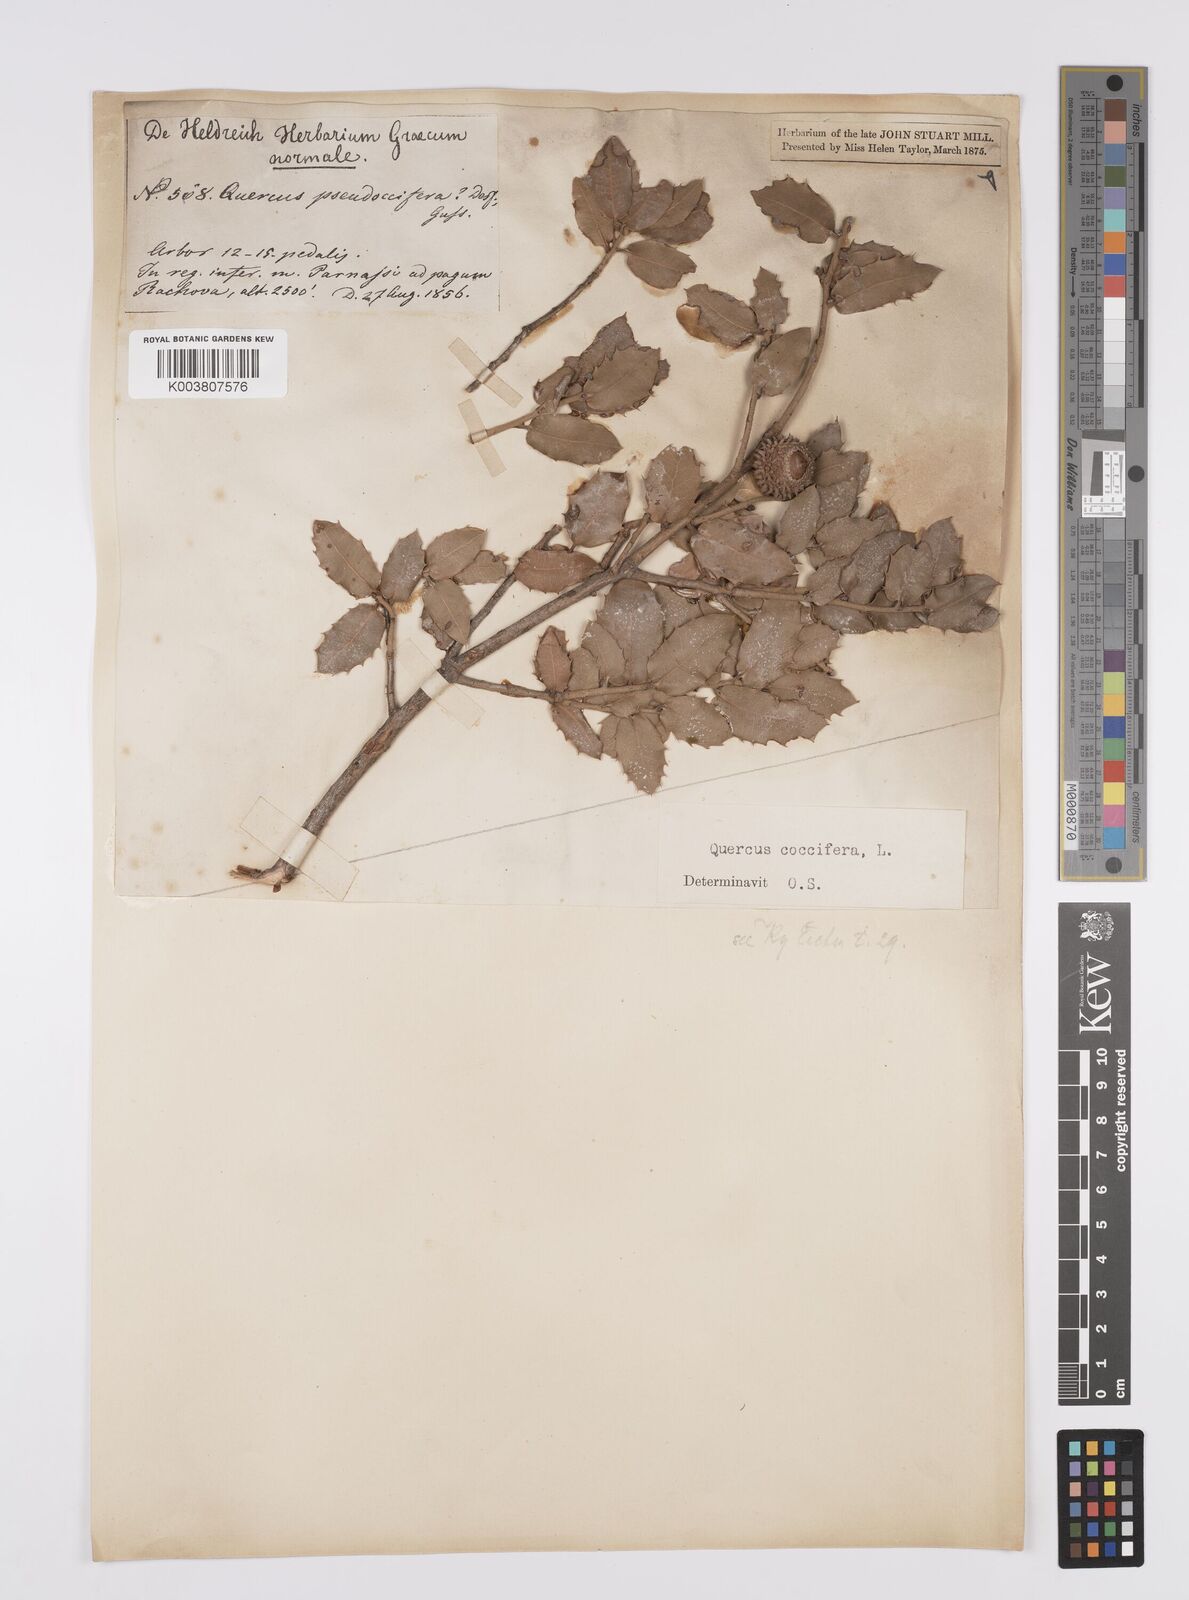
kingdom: Plantae
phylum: Tracheophyta
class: Magnoliopsida
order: Fagales
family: Fagaceae
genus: Quercus
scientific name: Quercus coccifera
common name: Kermes oak
